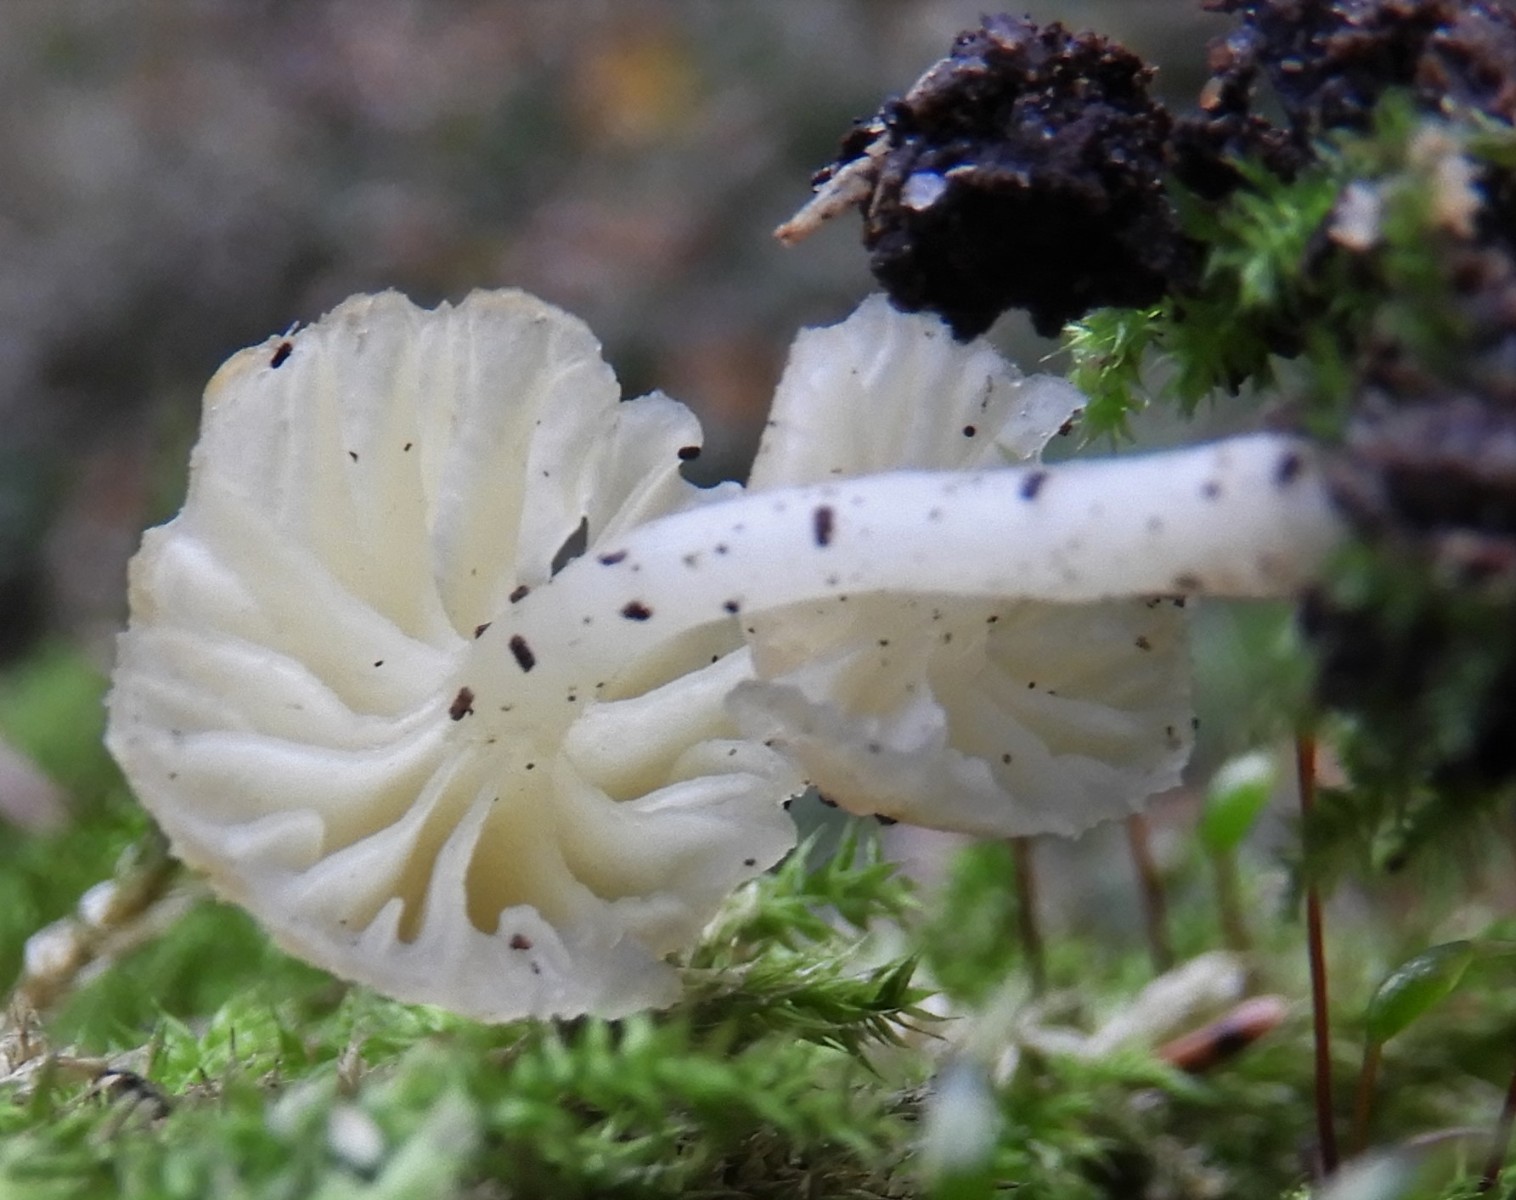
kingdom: Fungi
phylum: Basidiomycota
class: Agaricomycetes
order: Agaricales
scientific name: Agaricales
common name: champignonordenen
